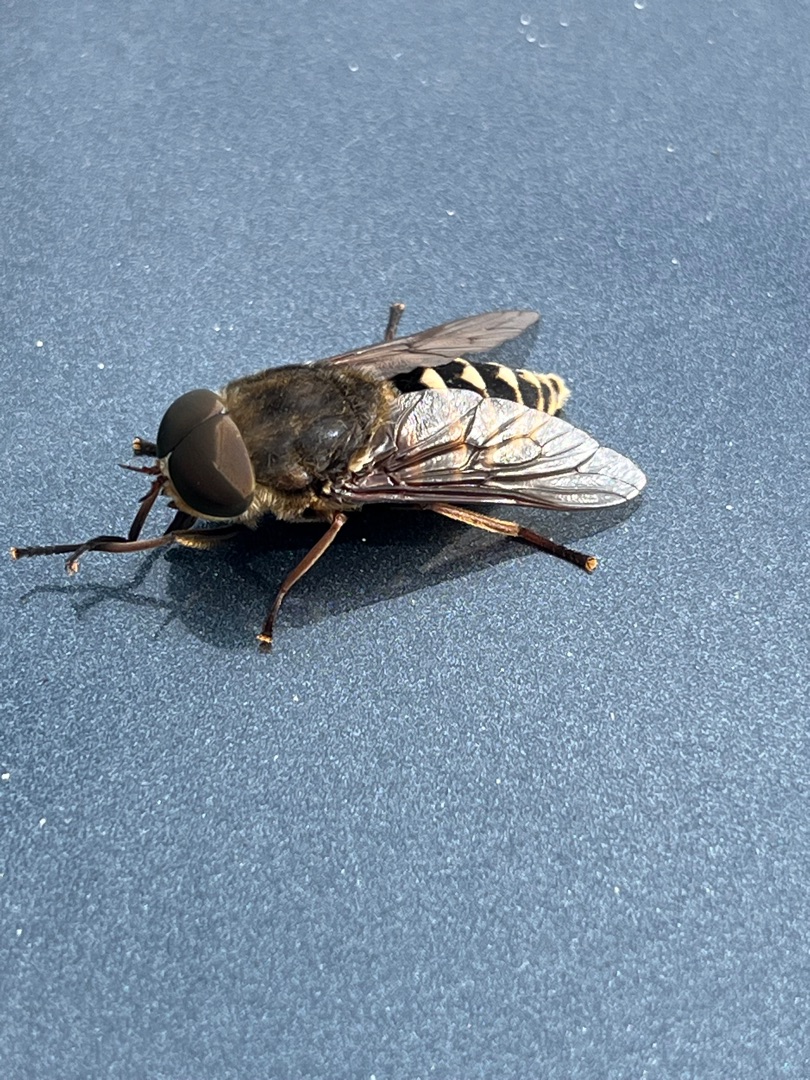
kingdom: Animalia
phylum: Arthropoda
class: Insecta
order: Diptera
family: Tabanidae
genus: Tabanus
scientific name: Tabanus sudeticus
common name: Hesteklæg
